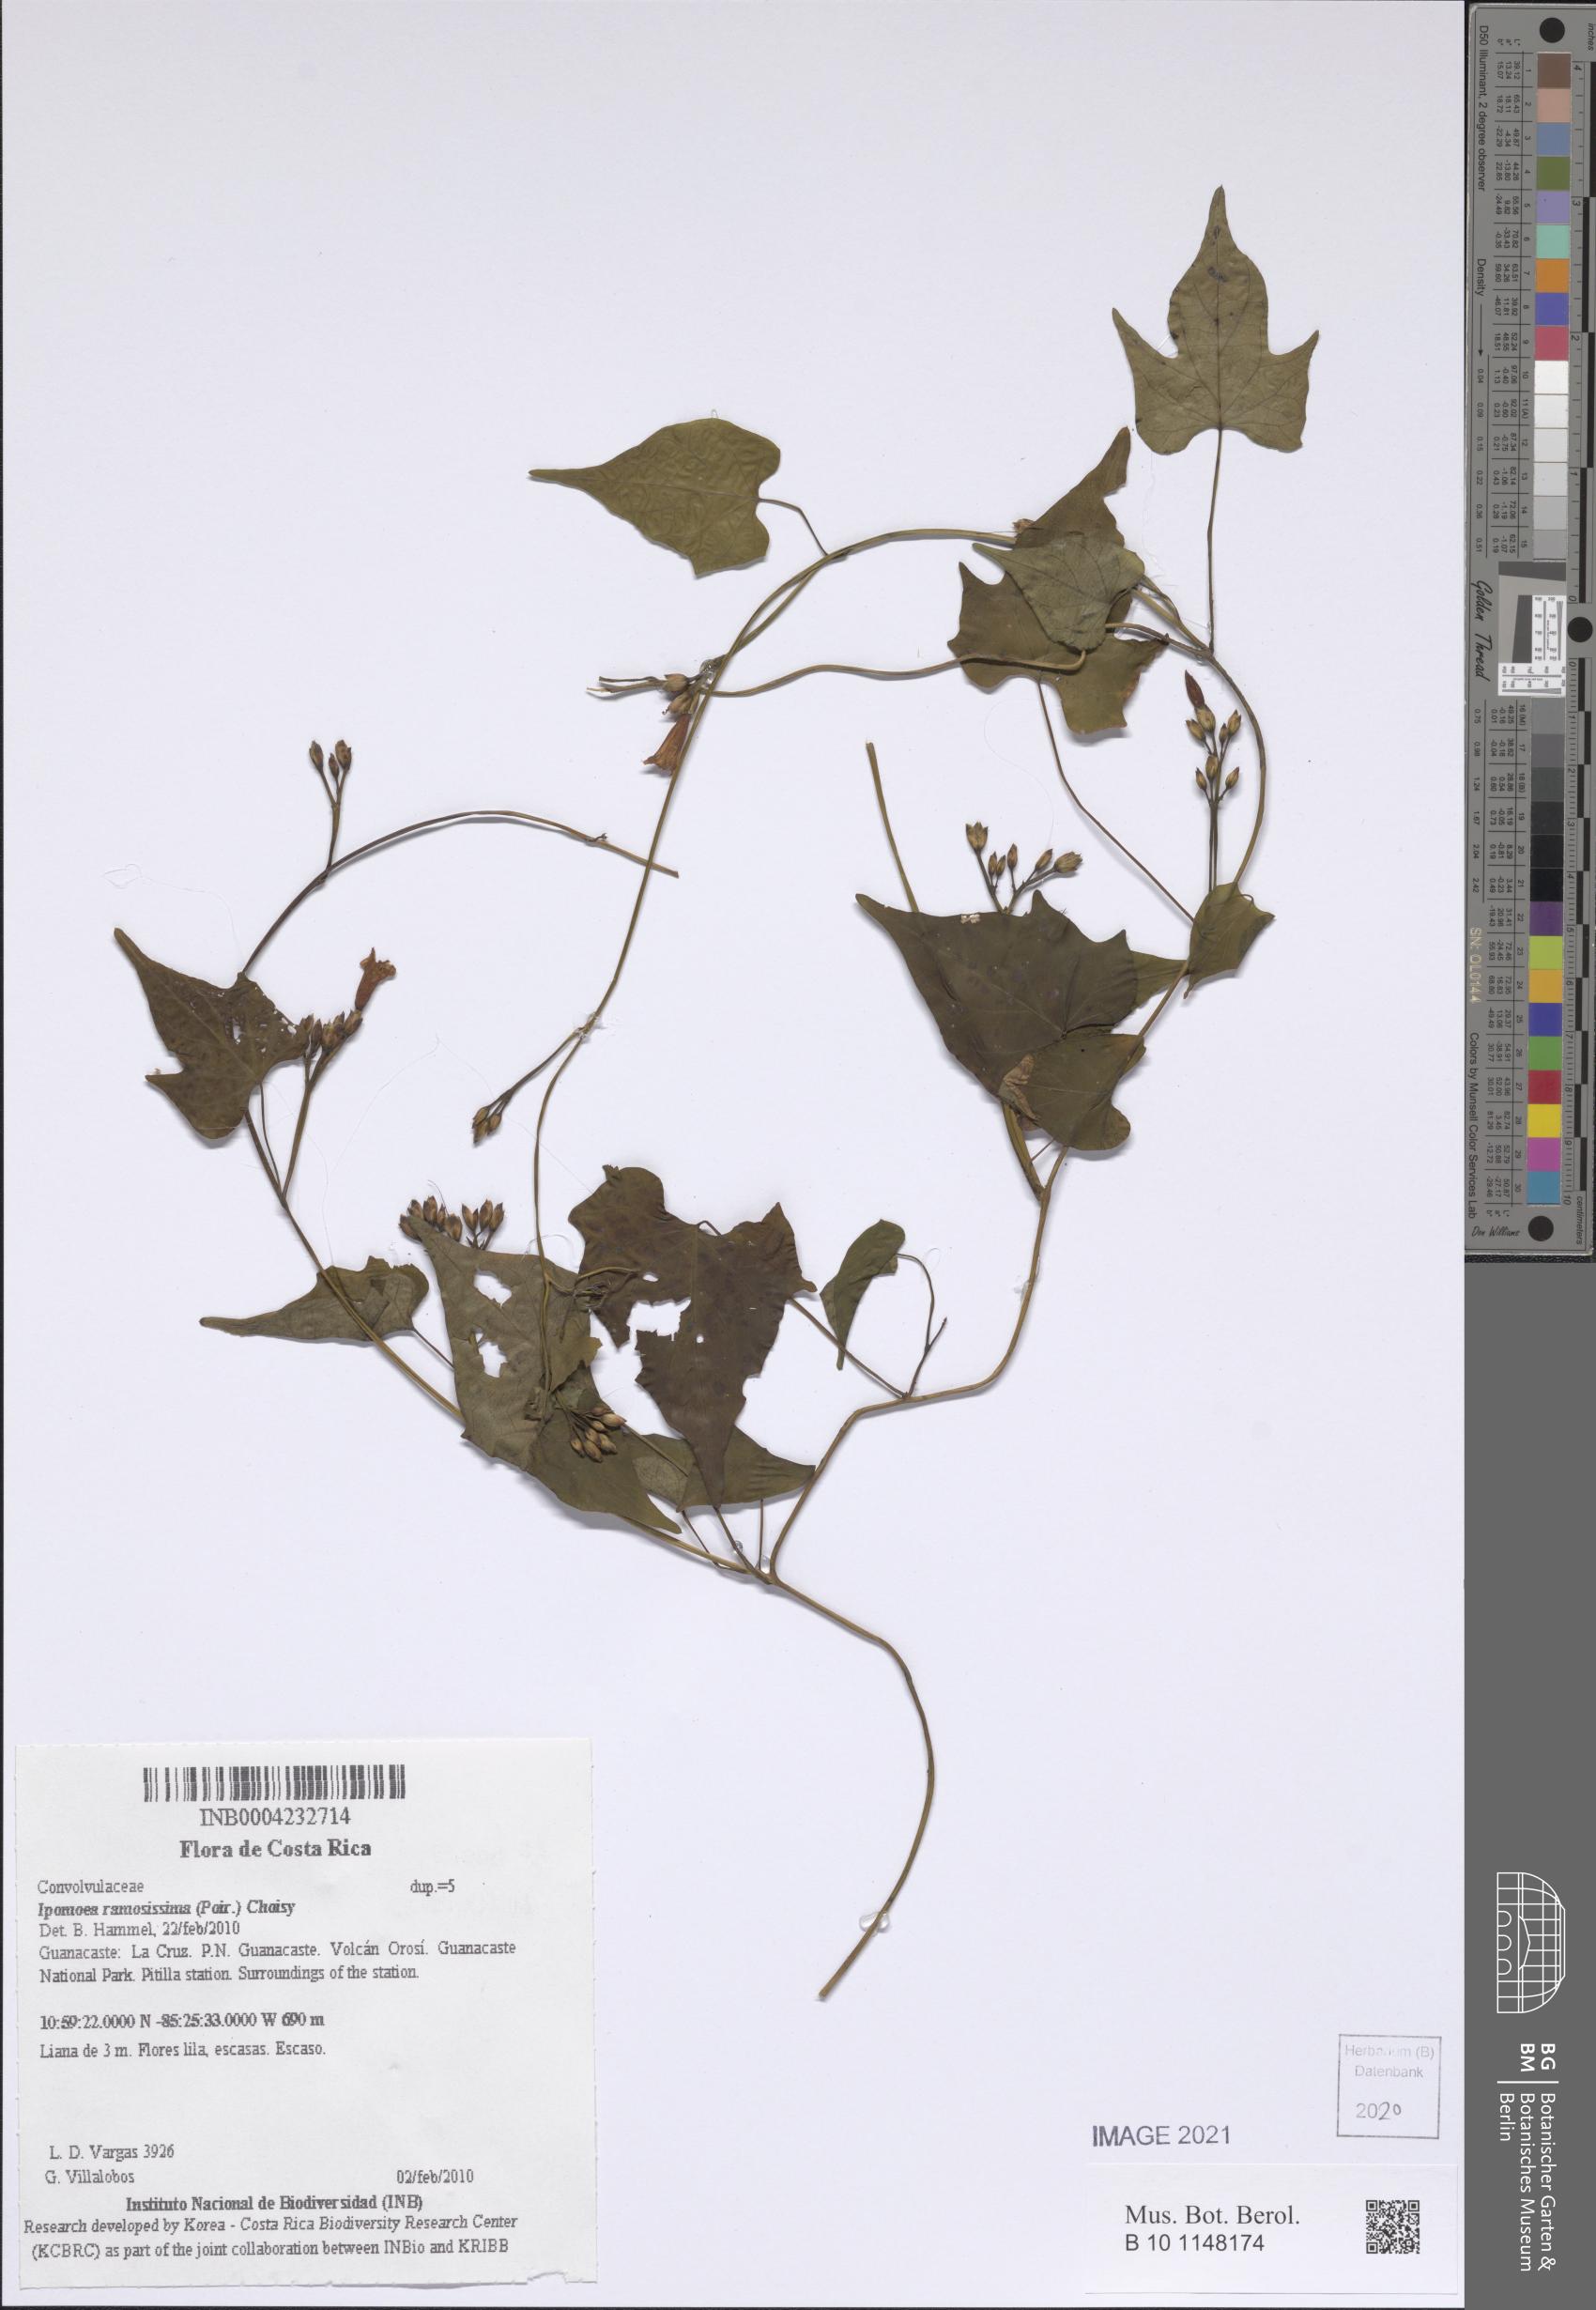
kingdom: Plantae
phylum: Tracheophyta
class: Magnoliopsida
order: Solanales
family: Convolvulaceae
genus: Ipomoea
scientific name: Ipomoea ramosissima
